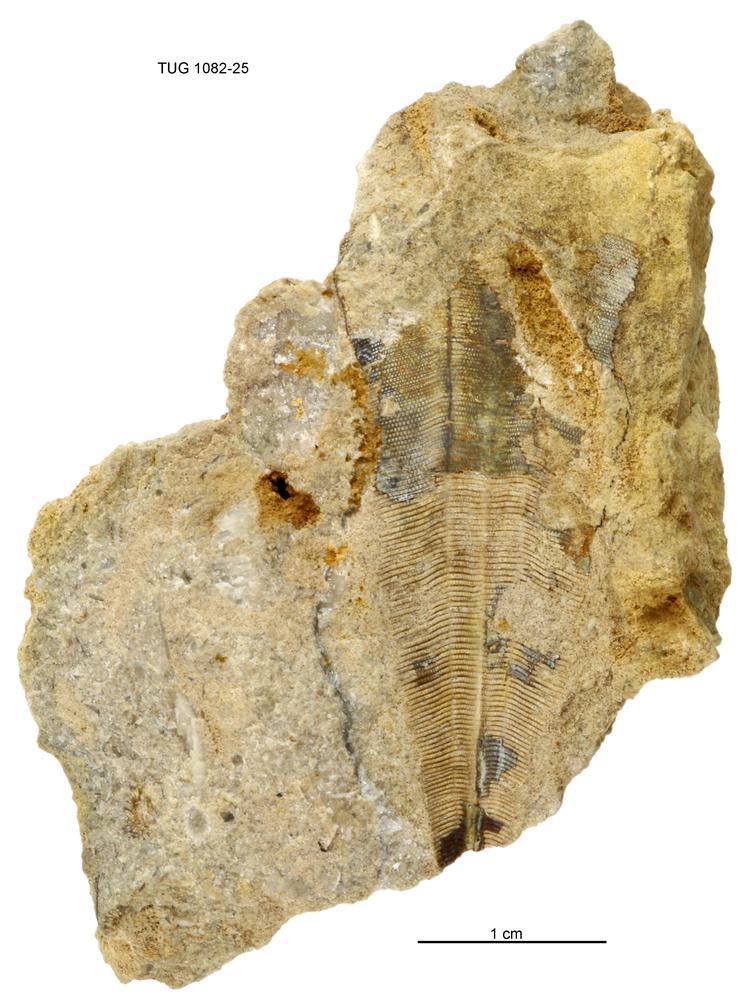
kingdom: Animalia
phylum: Cnidaria
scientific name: Cnidaria
